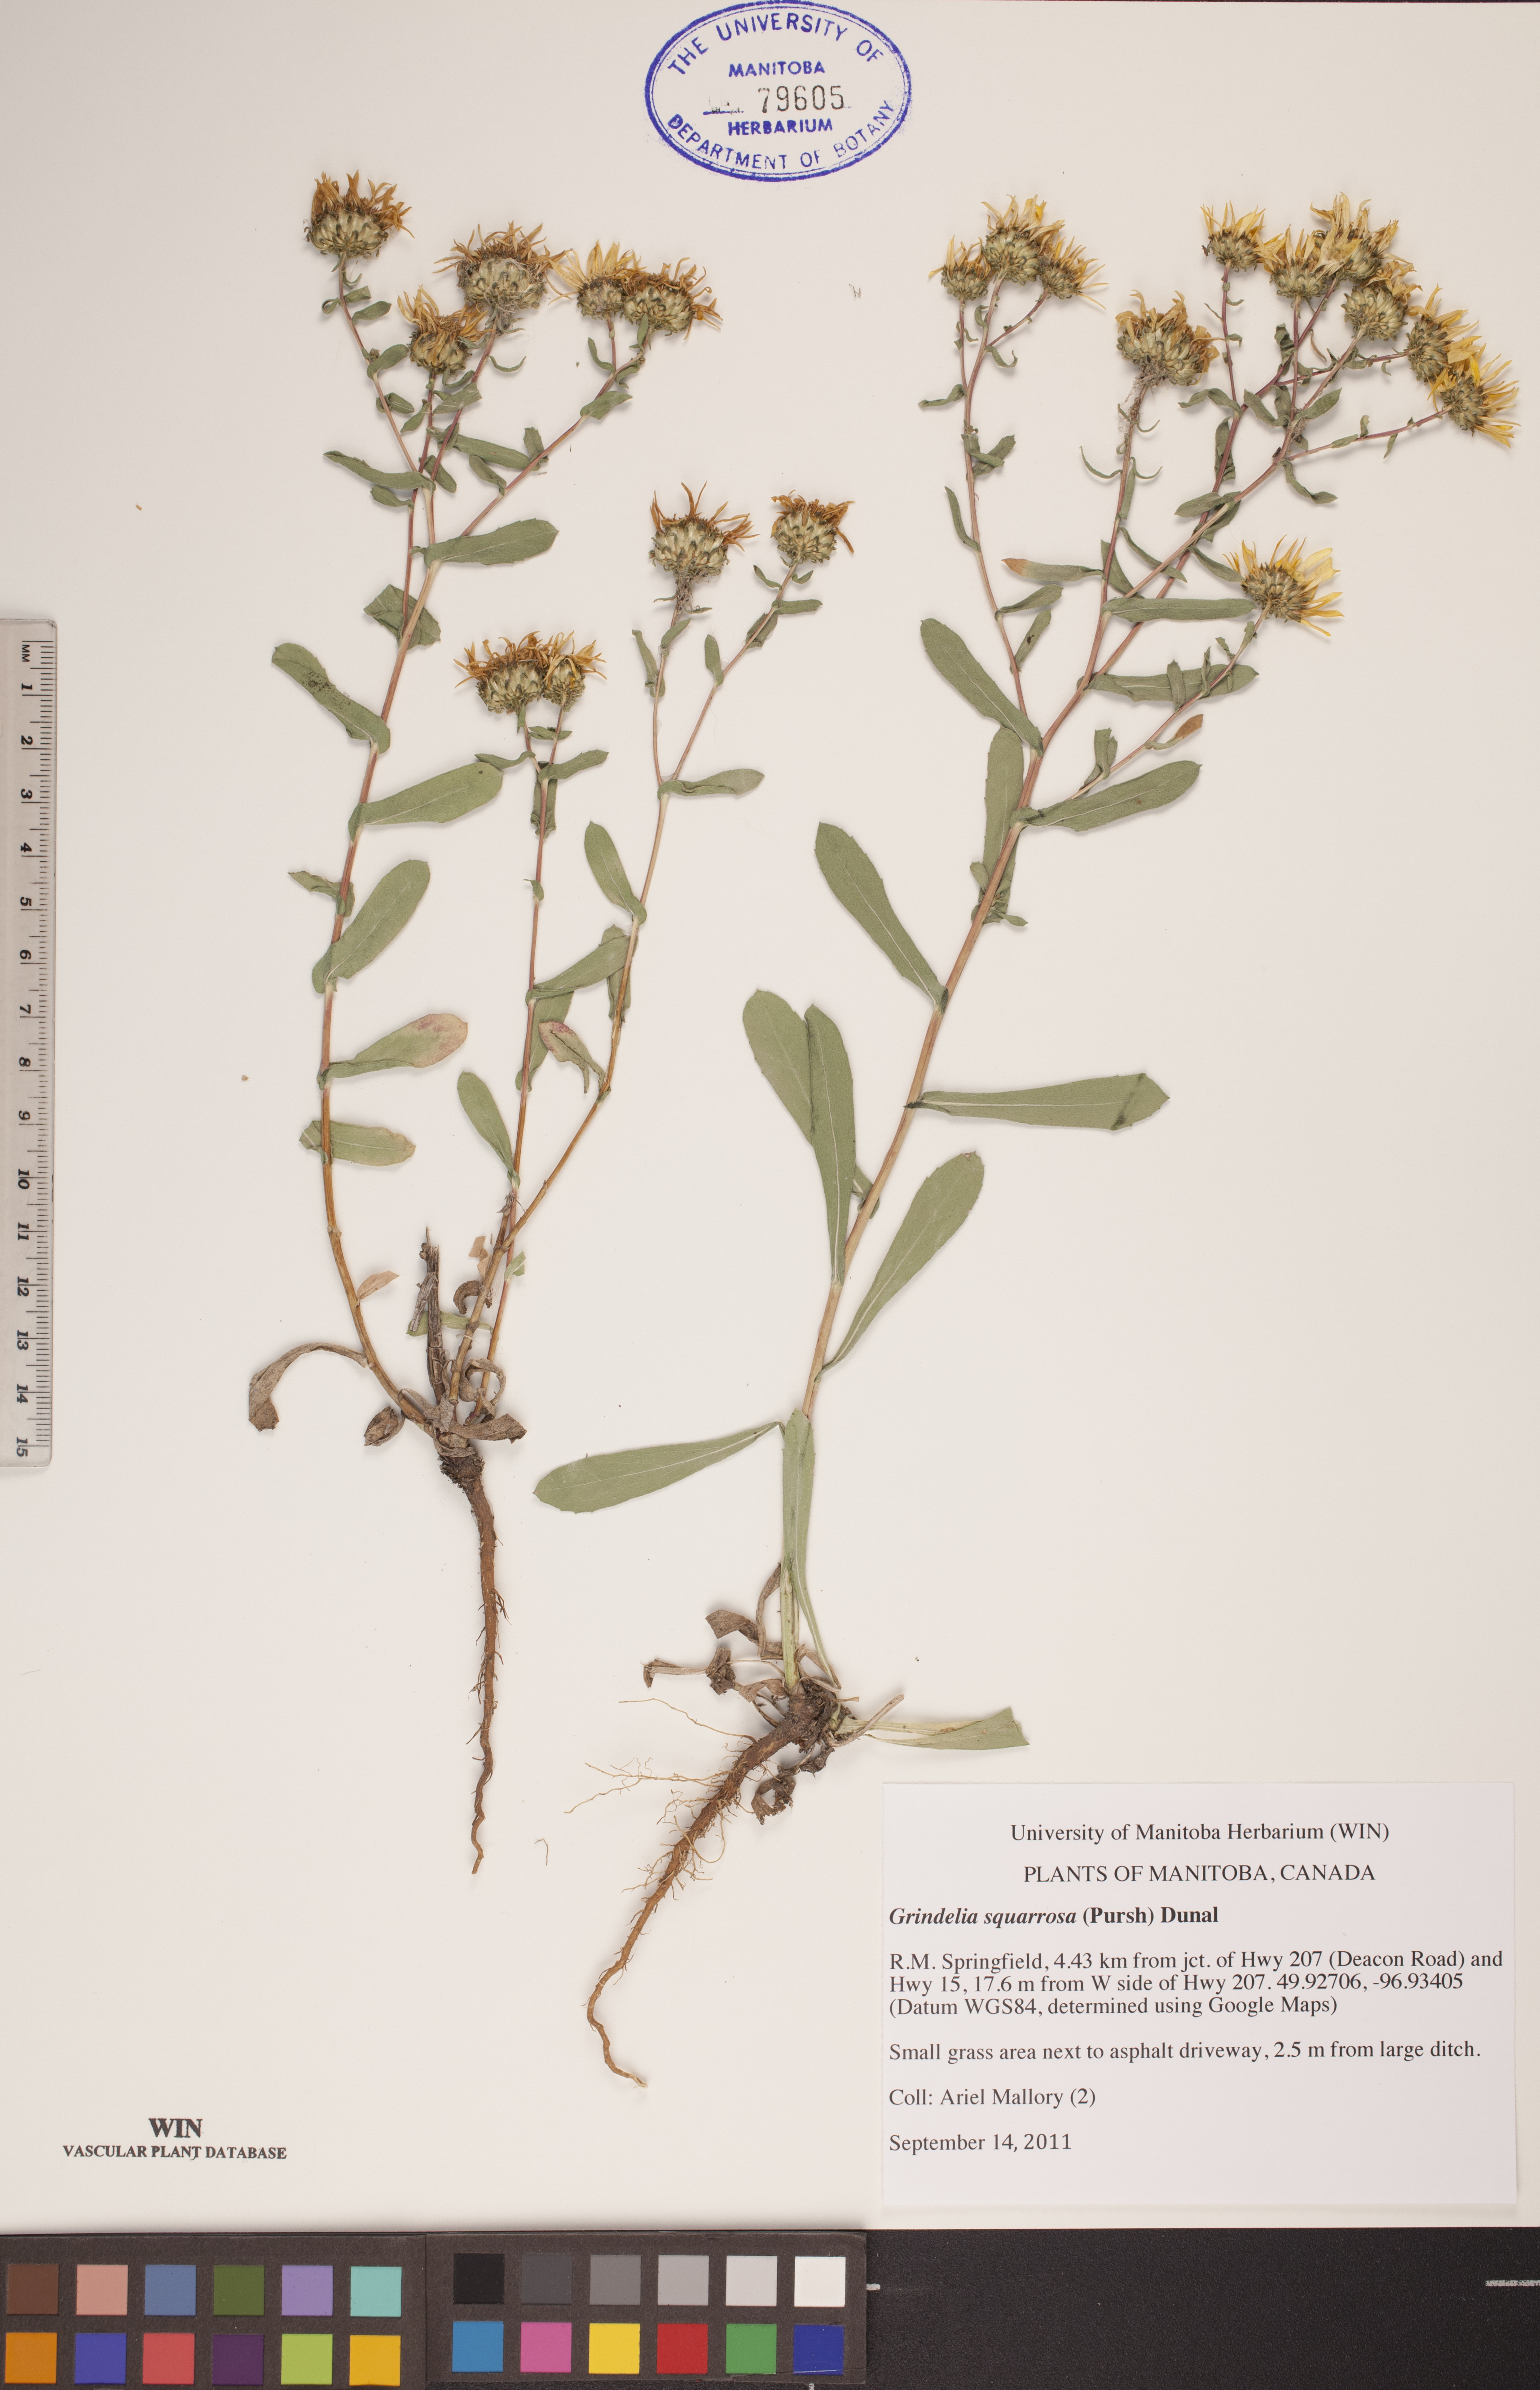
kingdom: Plantae
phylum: Tracheophyta
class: Magnoliopsida
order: Asterales
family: Asteraceae
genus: Grindelia
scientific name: Grindelia squarrosa
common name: Curly-cup gumweed
